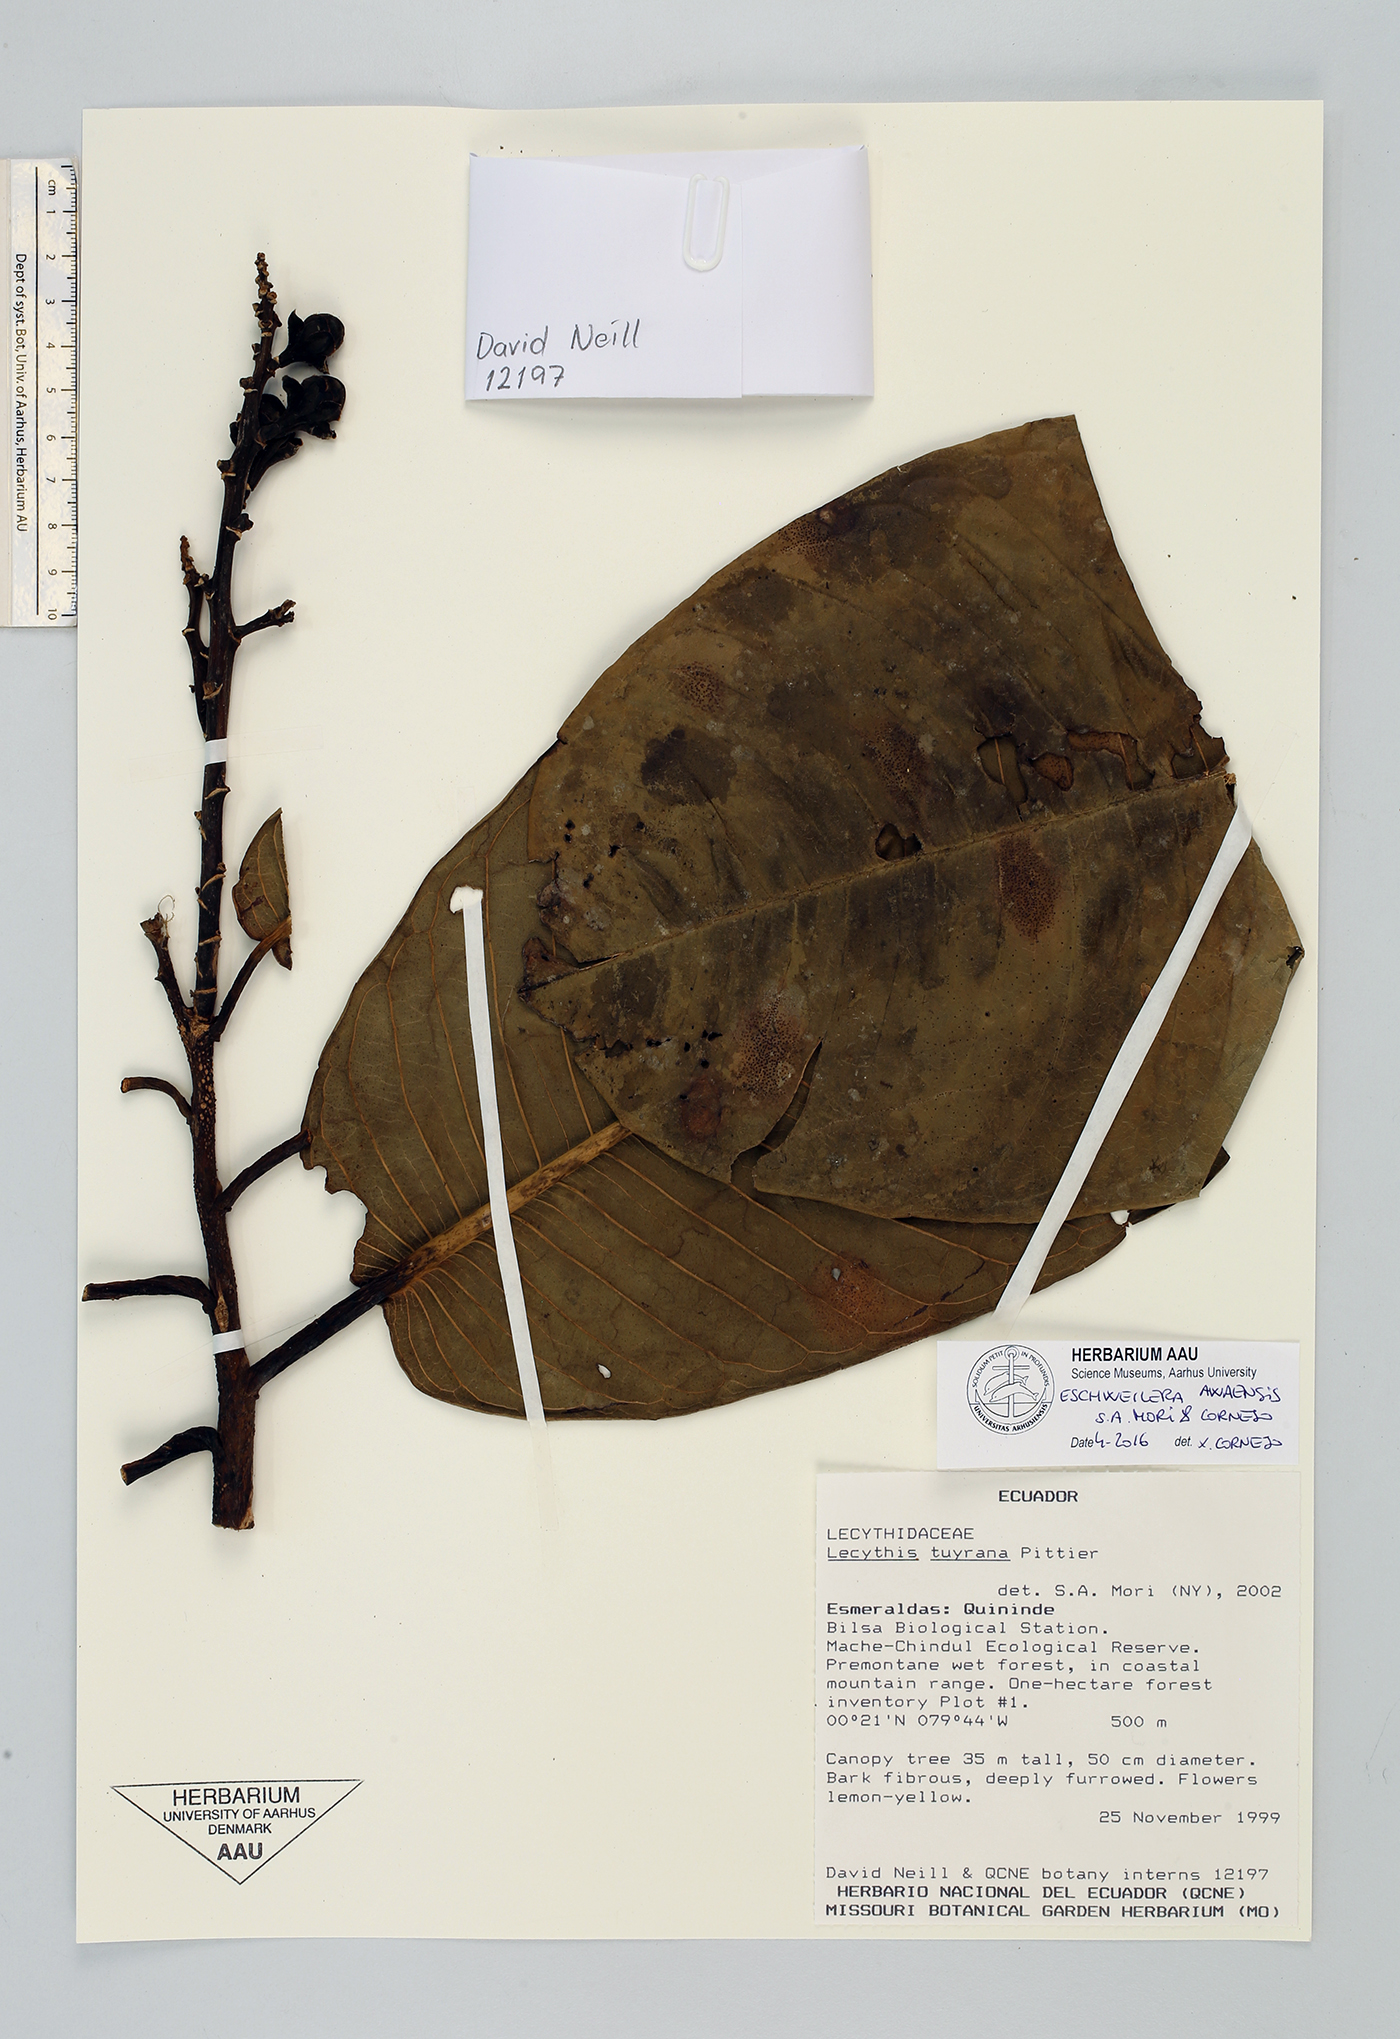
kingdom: Plantae
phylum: Tracheophyta
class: Magnoliopsida
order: Ericales
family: Lecythidaceae
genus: Eschweilera
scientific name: Eschweilera awaensis
